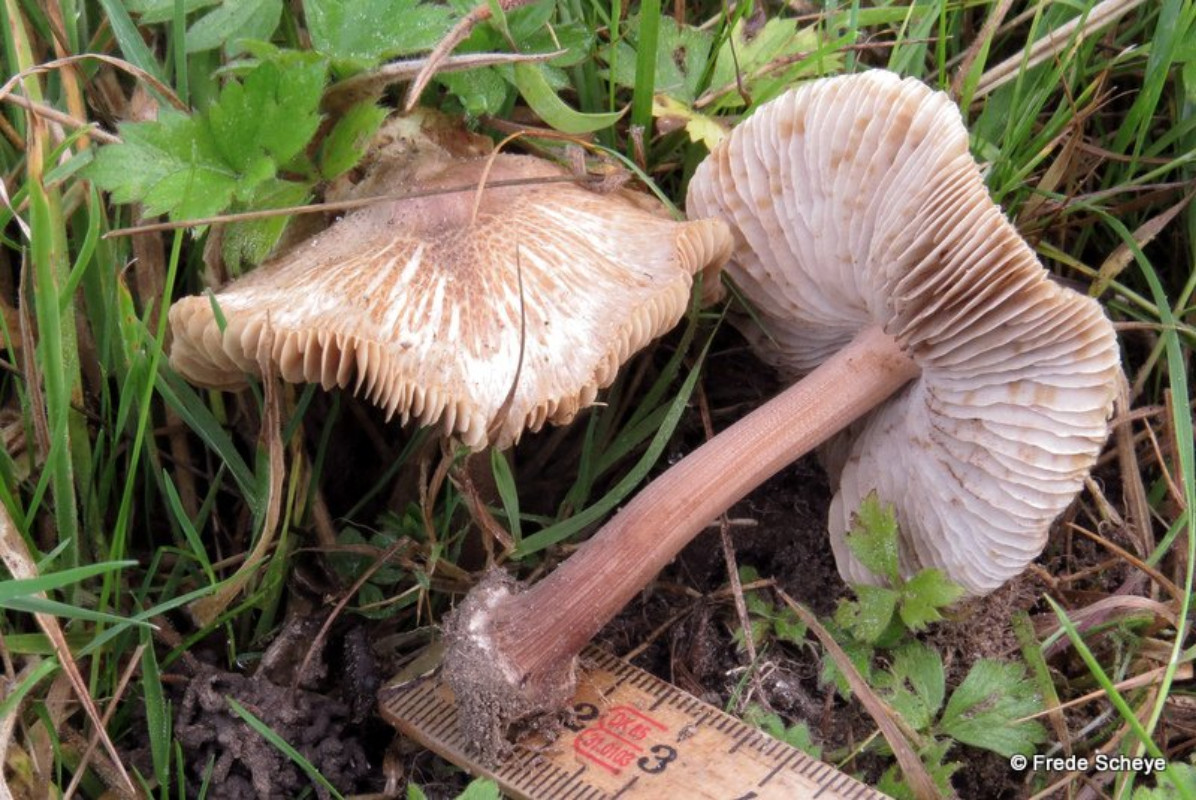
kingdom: Fungi
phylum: Basidiomycota
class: Agaricomycetes
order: Agaricales
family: Inocybaceae
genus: Inocybe
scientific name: Inocybe asterospora
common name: stjernesporet trævlhat
